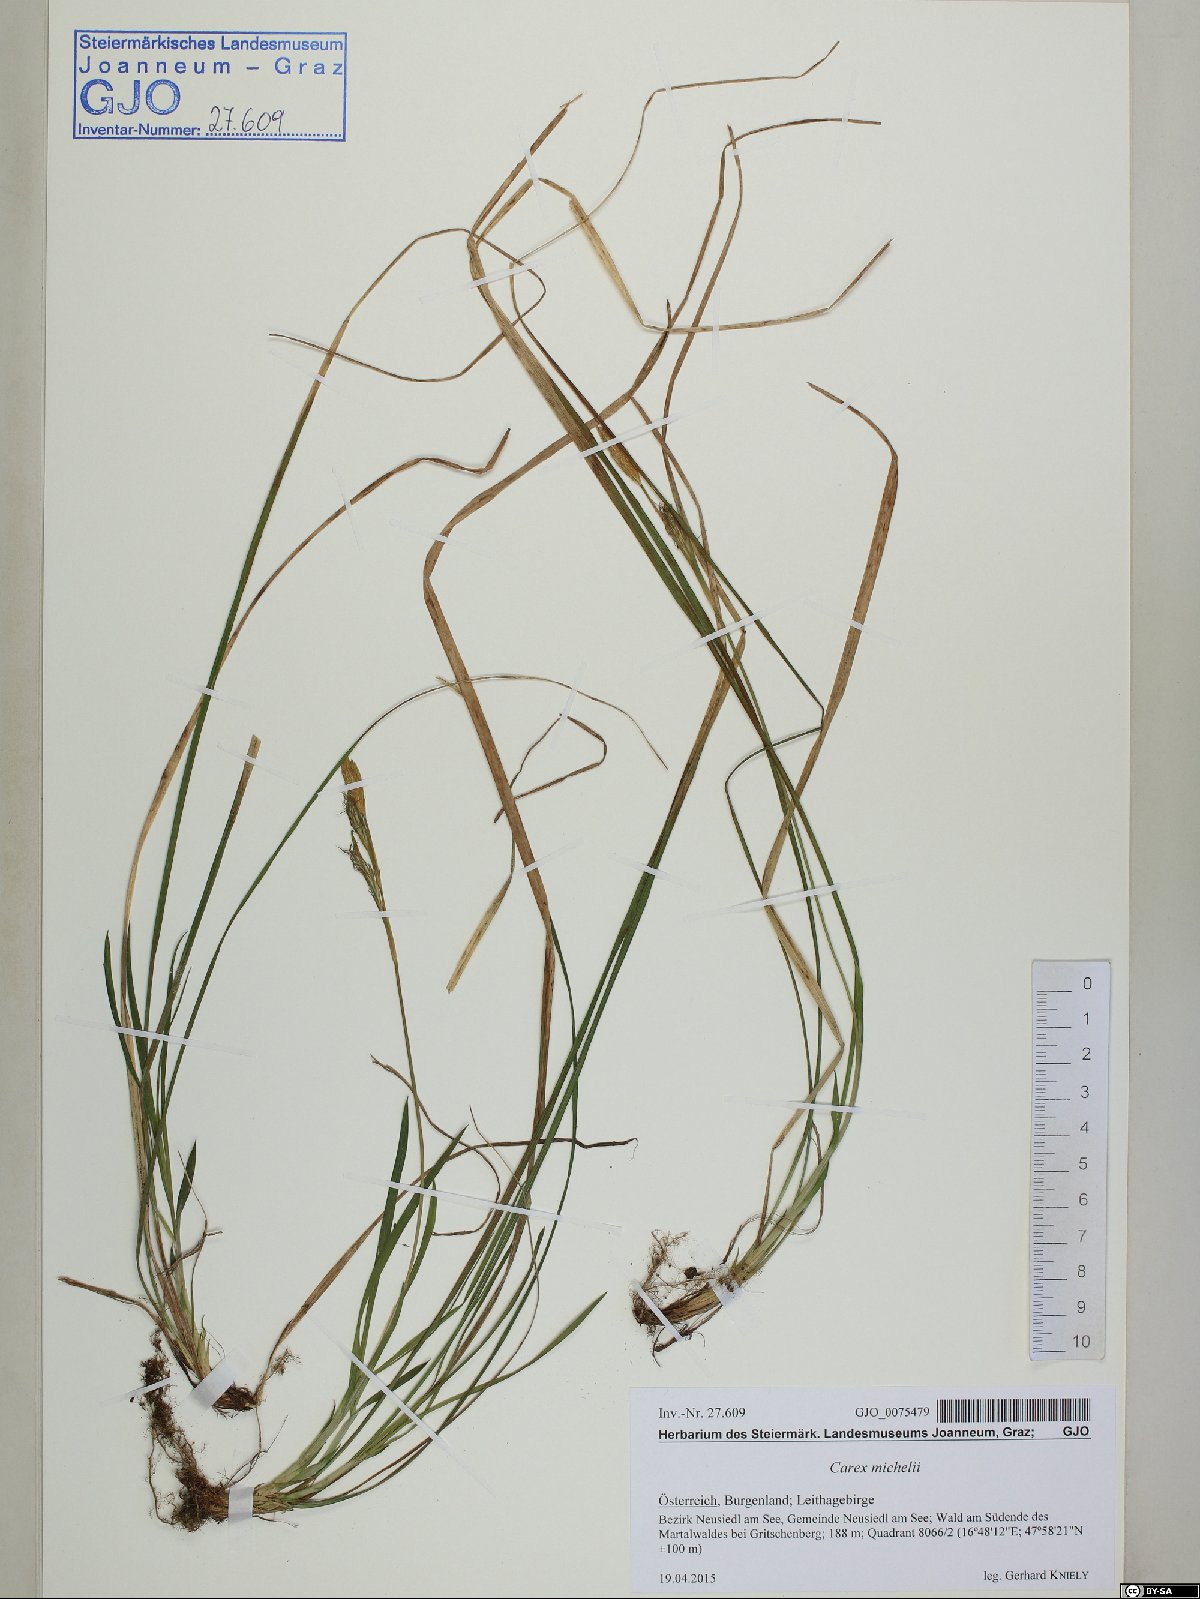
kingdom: Plantae
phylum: Tracheophyta
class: Liliopsida
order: Poales
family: Cyperaceae
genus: Carex
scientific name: Carex michelii
